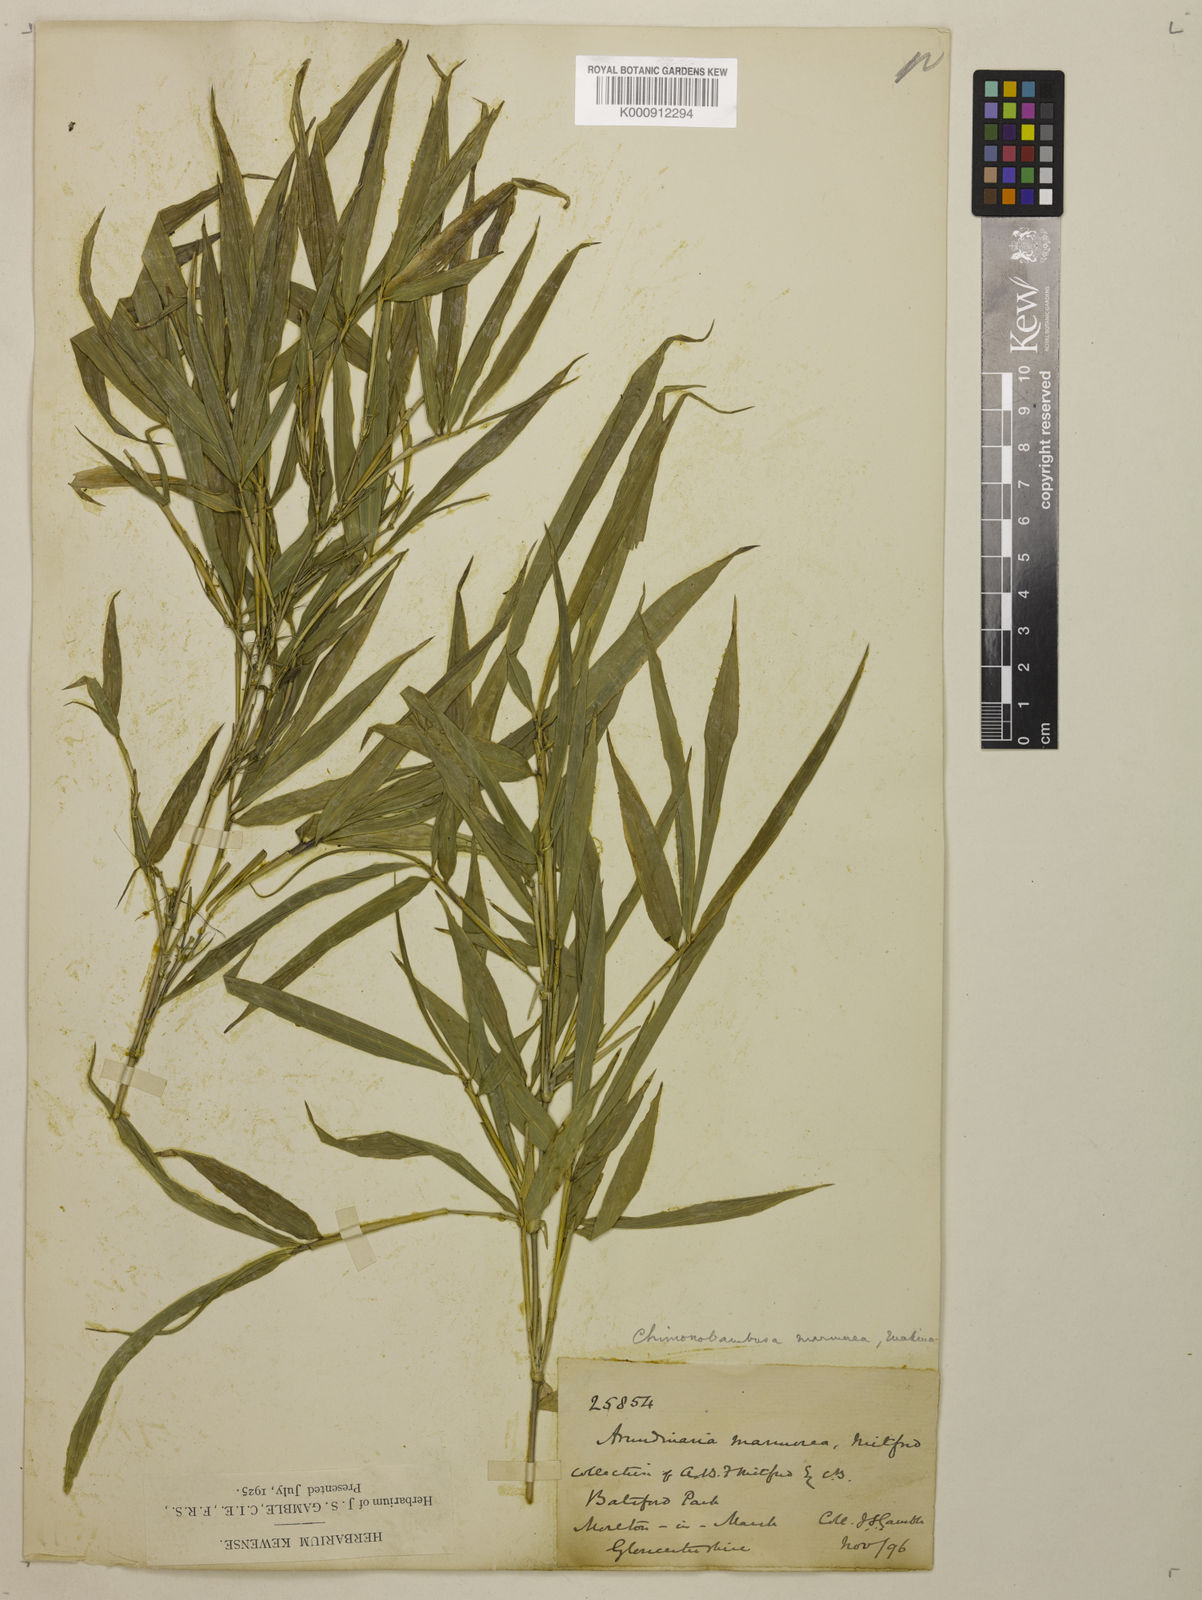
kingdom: Plantae
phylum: Tracheophyta
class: Liliopsida
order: Poales
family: Poaceae
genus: Chimonobambusa
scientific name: Chimonobambusa marmorea
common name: Marbled bamboo
